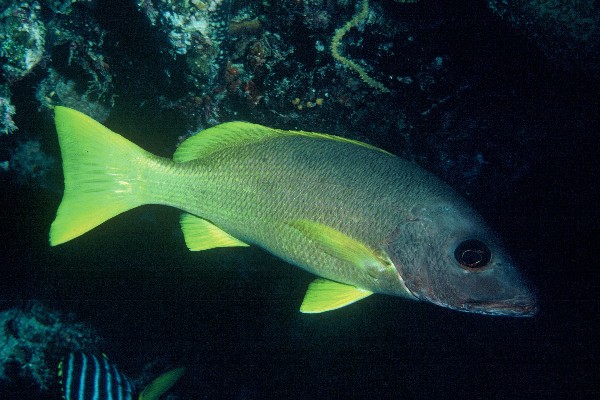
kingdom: Animalia
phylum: Chordata
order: Perciformes
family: Lutjanidae
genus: Lutjanus
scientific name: Lutjanus monostigma
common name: Onespot snapper
